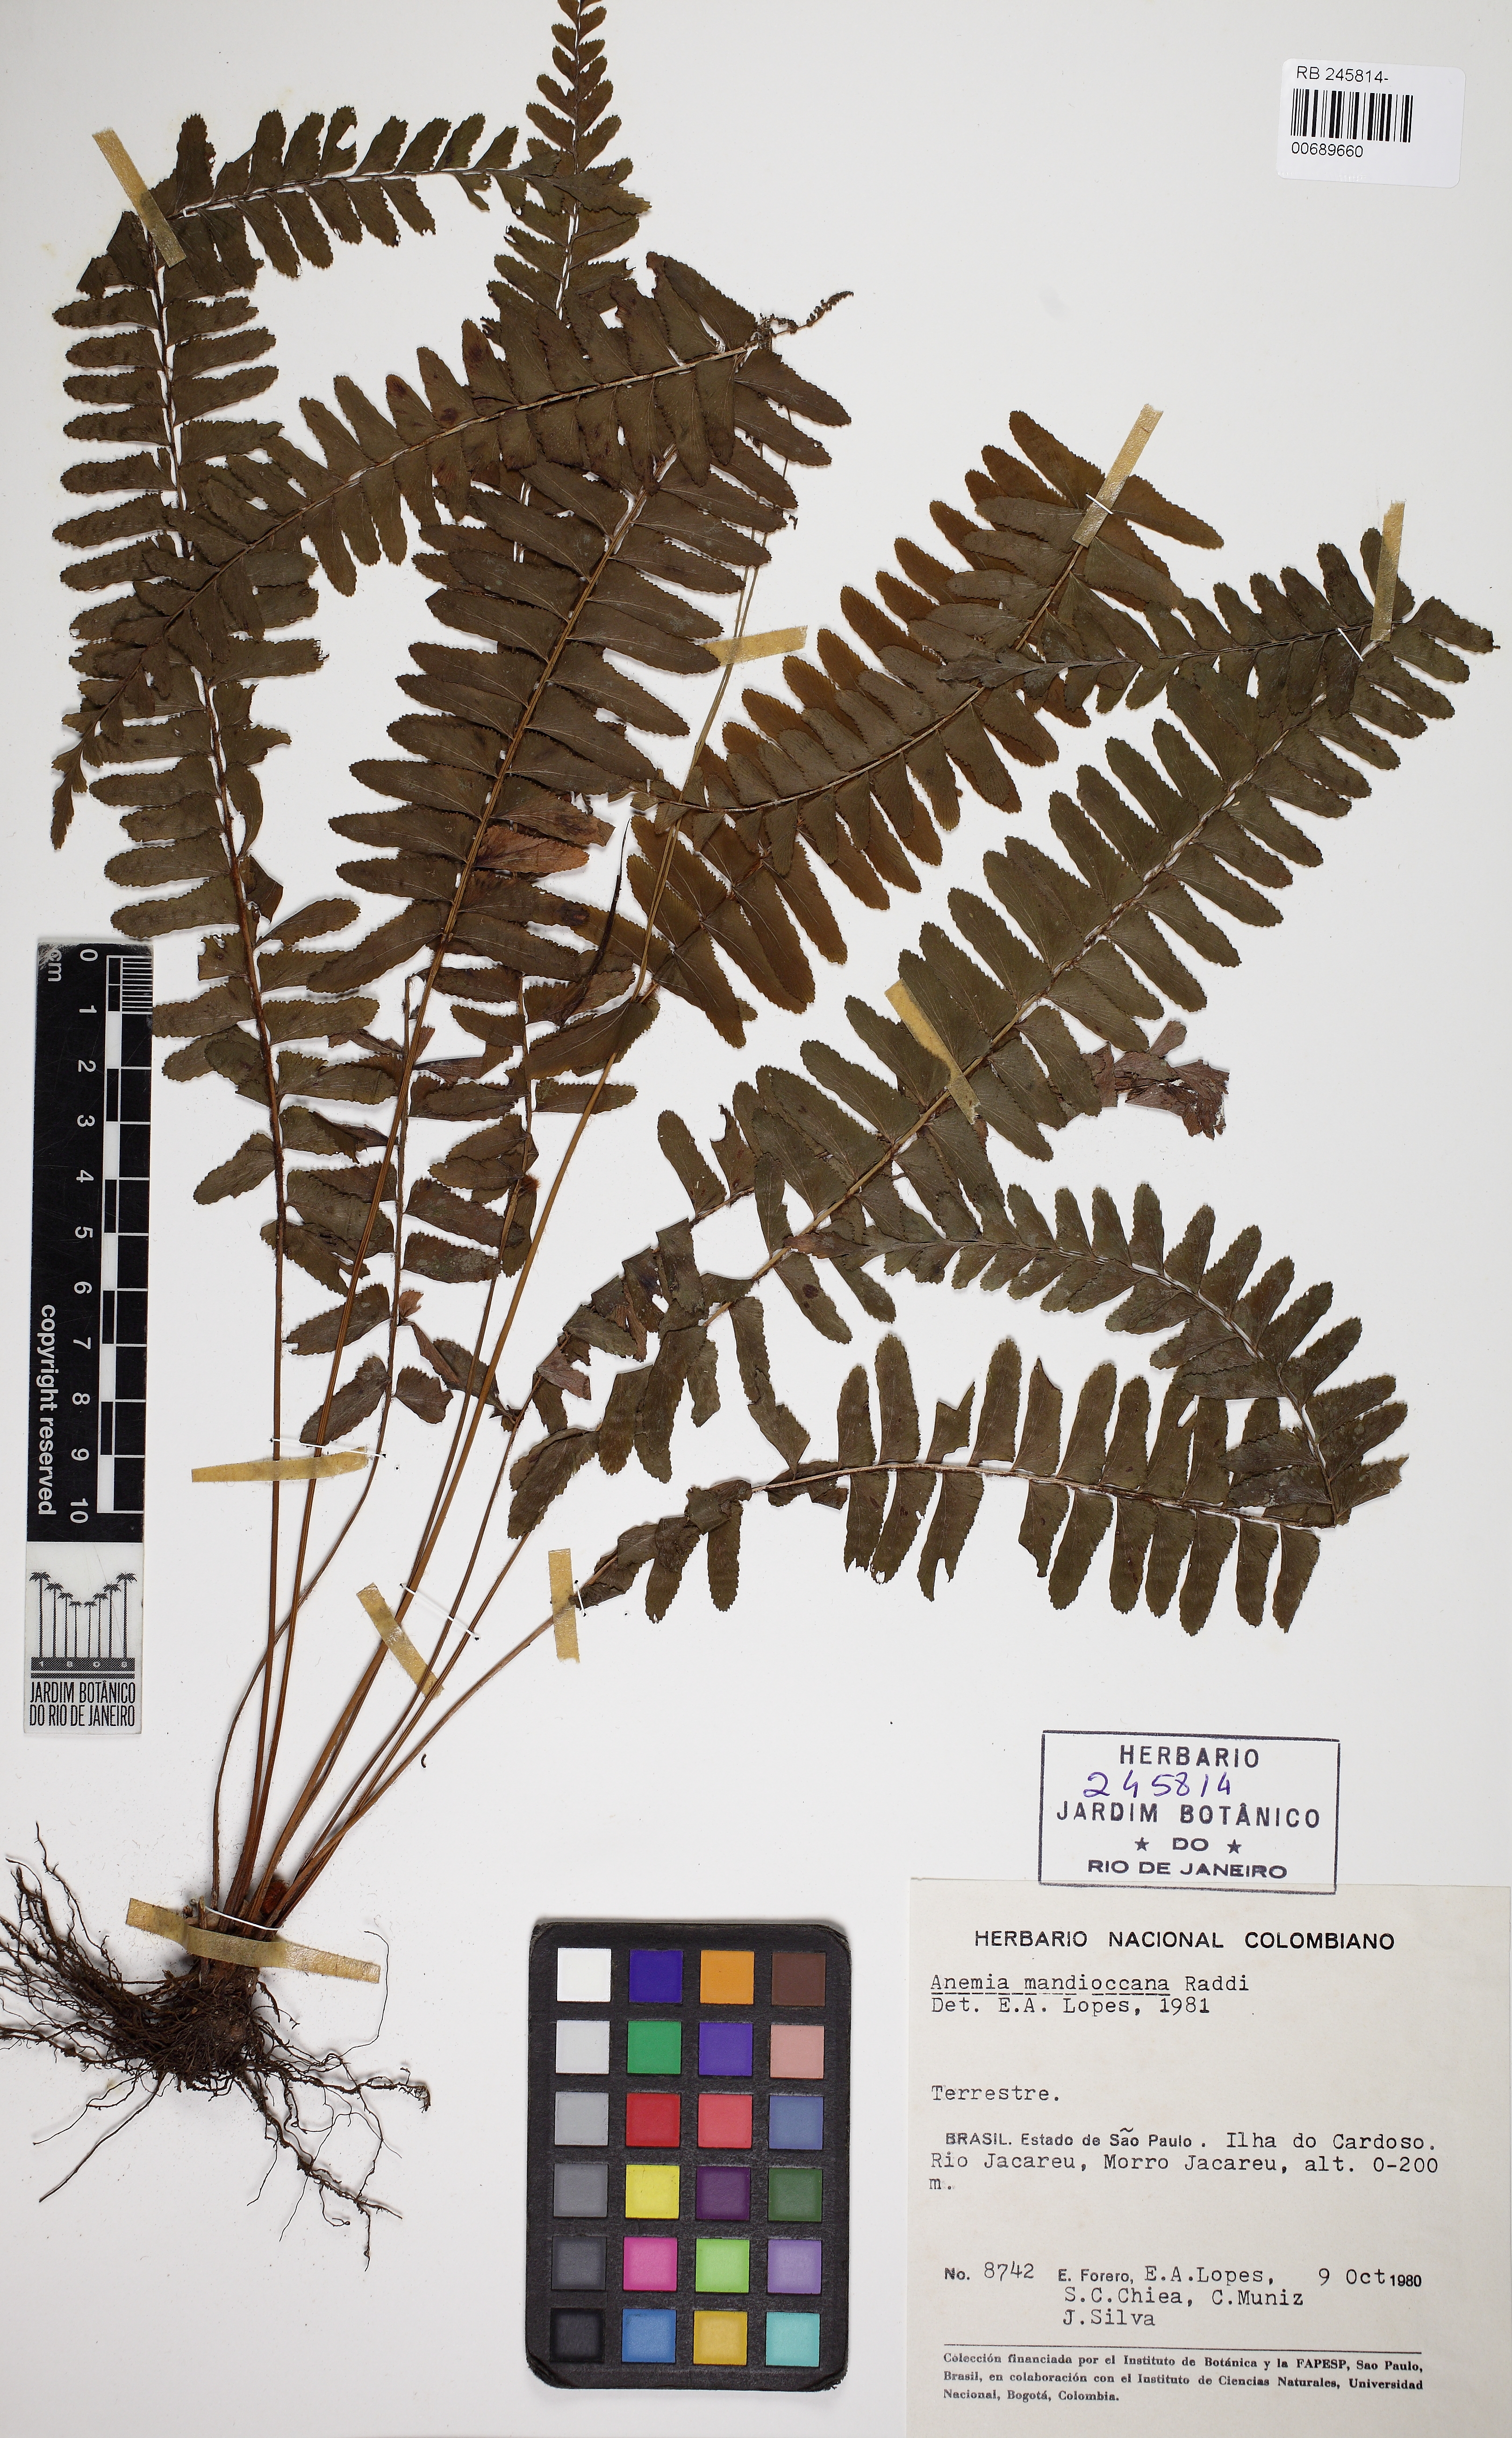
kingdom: Plantae
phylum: Tracheophyta
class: Polypodiopsida
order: Schizaeales
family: Anemiaceae
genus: Anemia
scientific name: Anemia mandiocana
